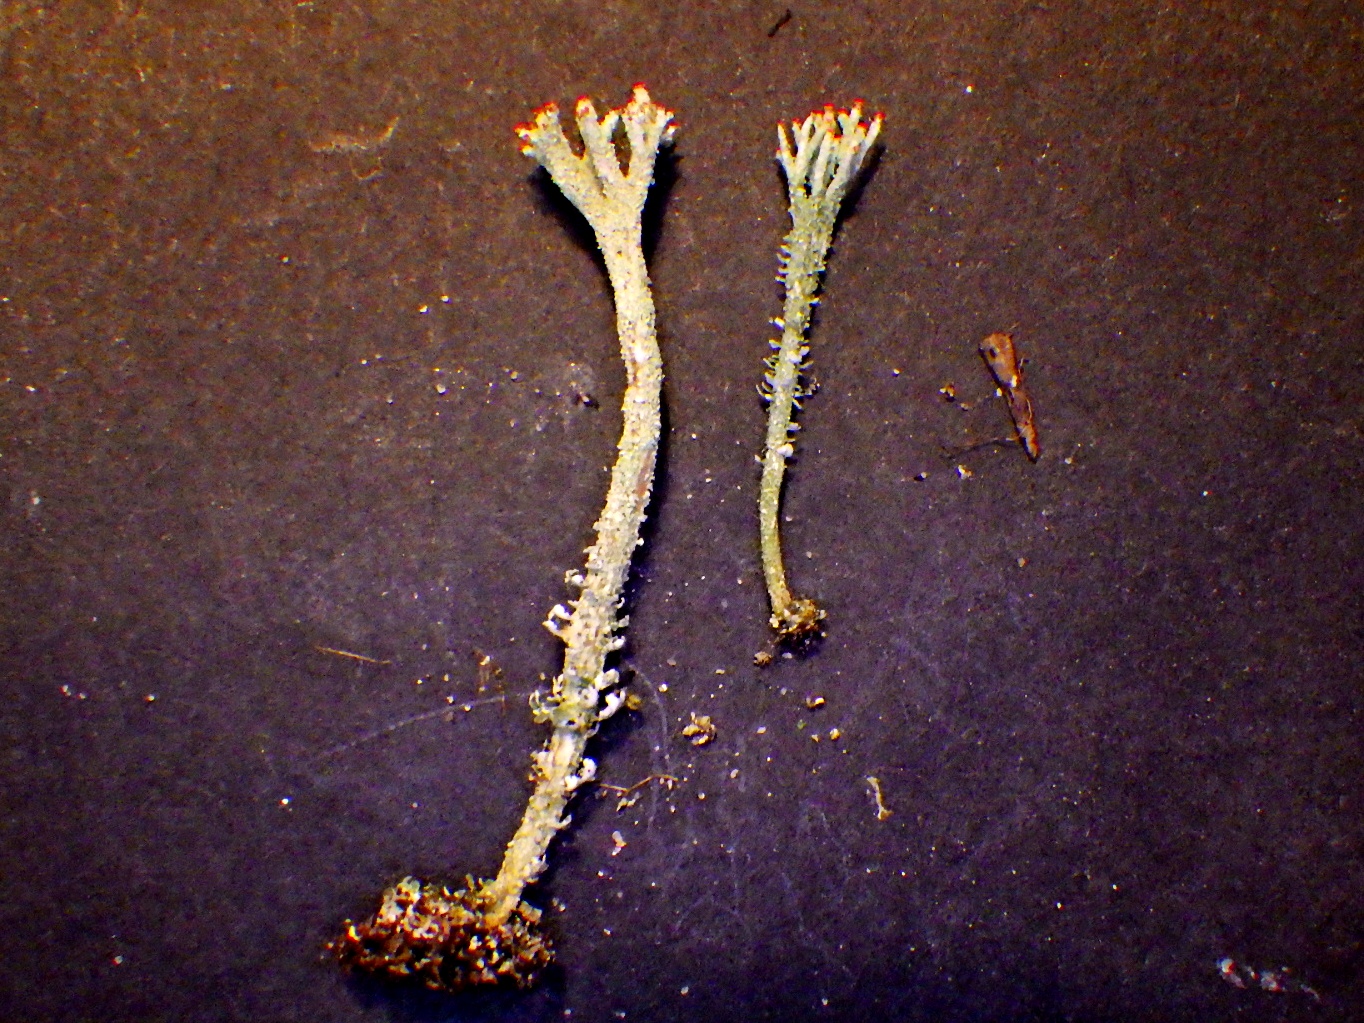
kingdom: Fungi
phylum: Ascomycota
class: Lecanoromycetes
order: Lecanorales
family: Cladoniaceae
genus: Cladonia
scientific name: Cladonia floerkeana
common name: lakrød bægerlav
